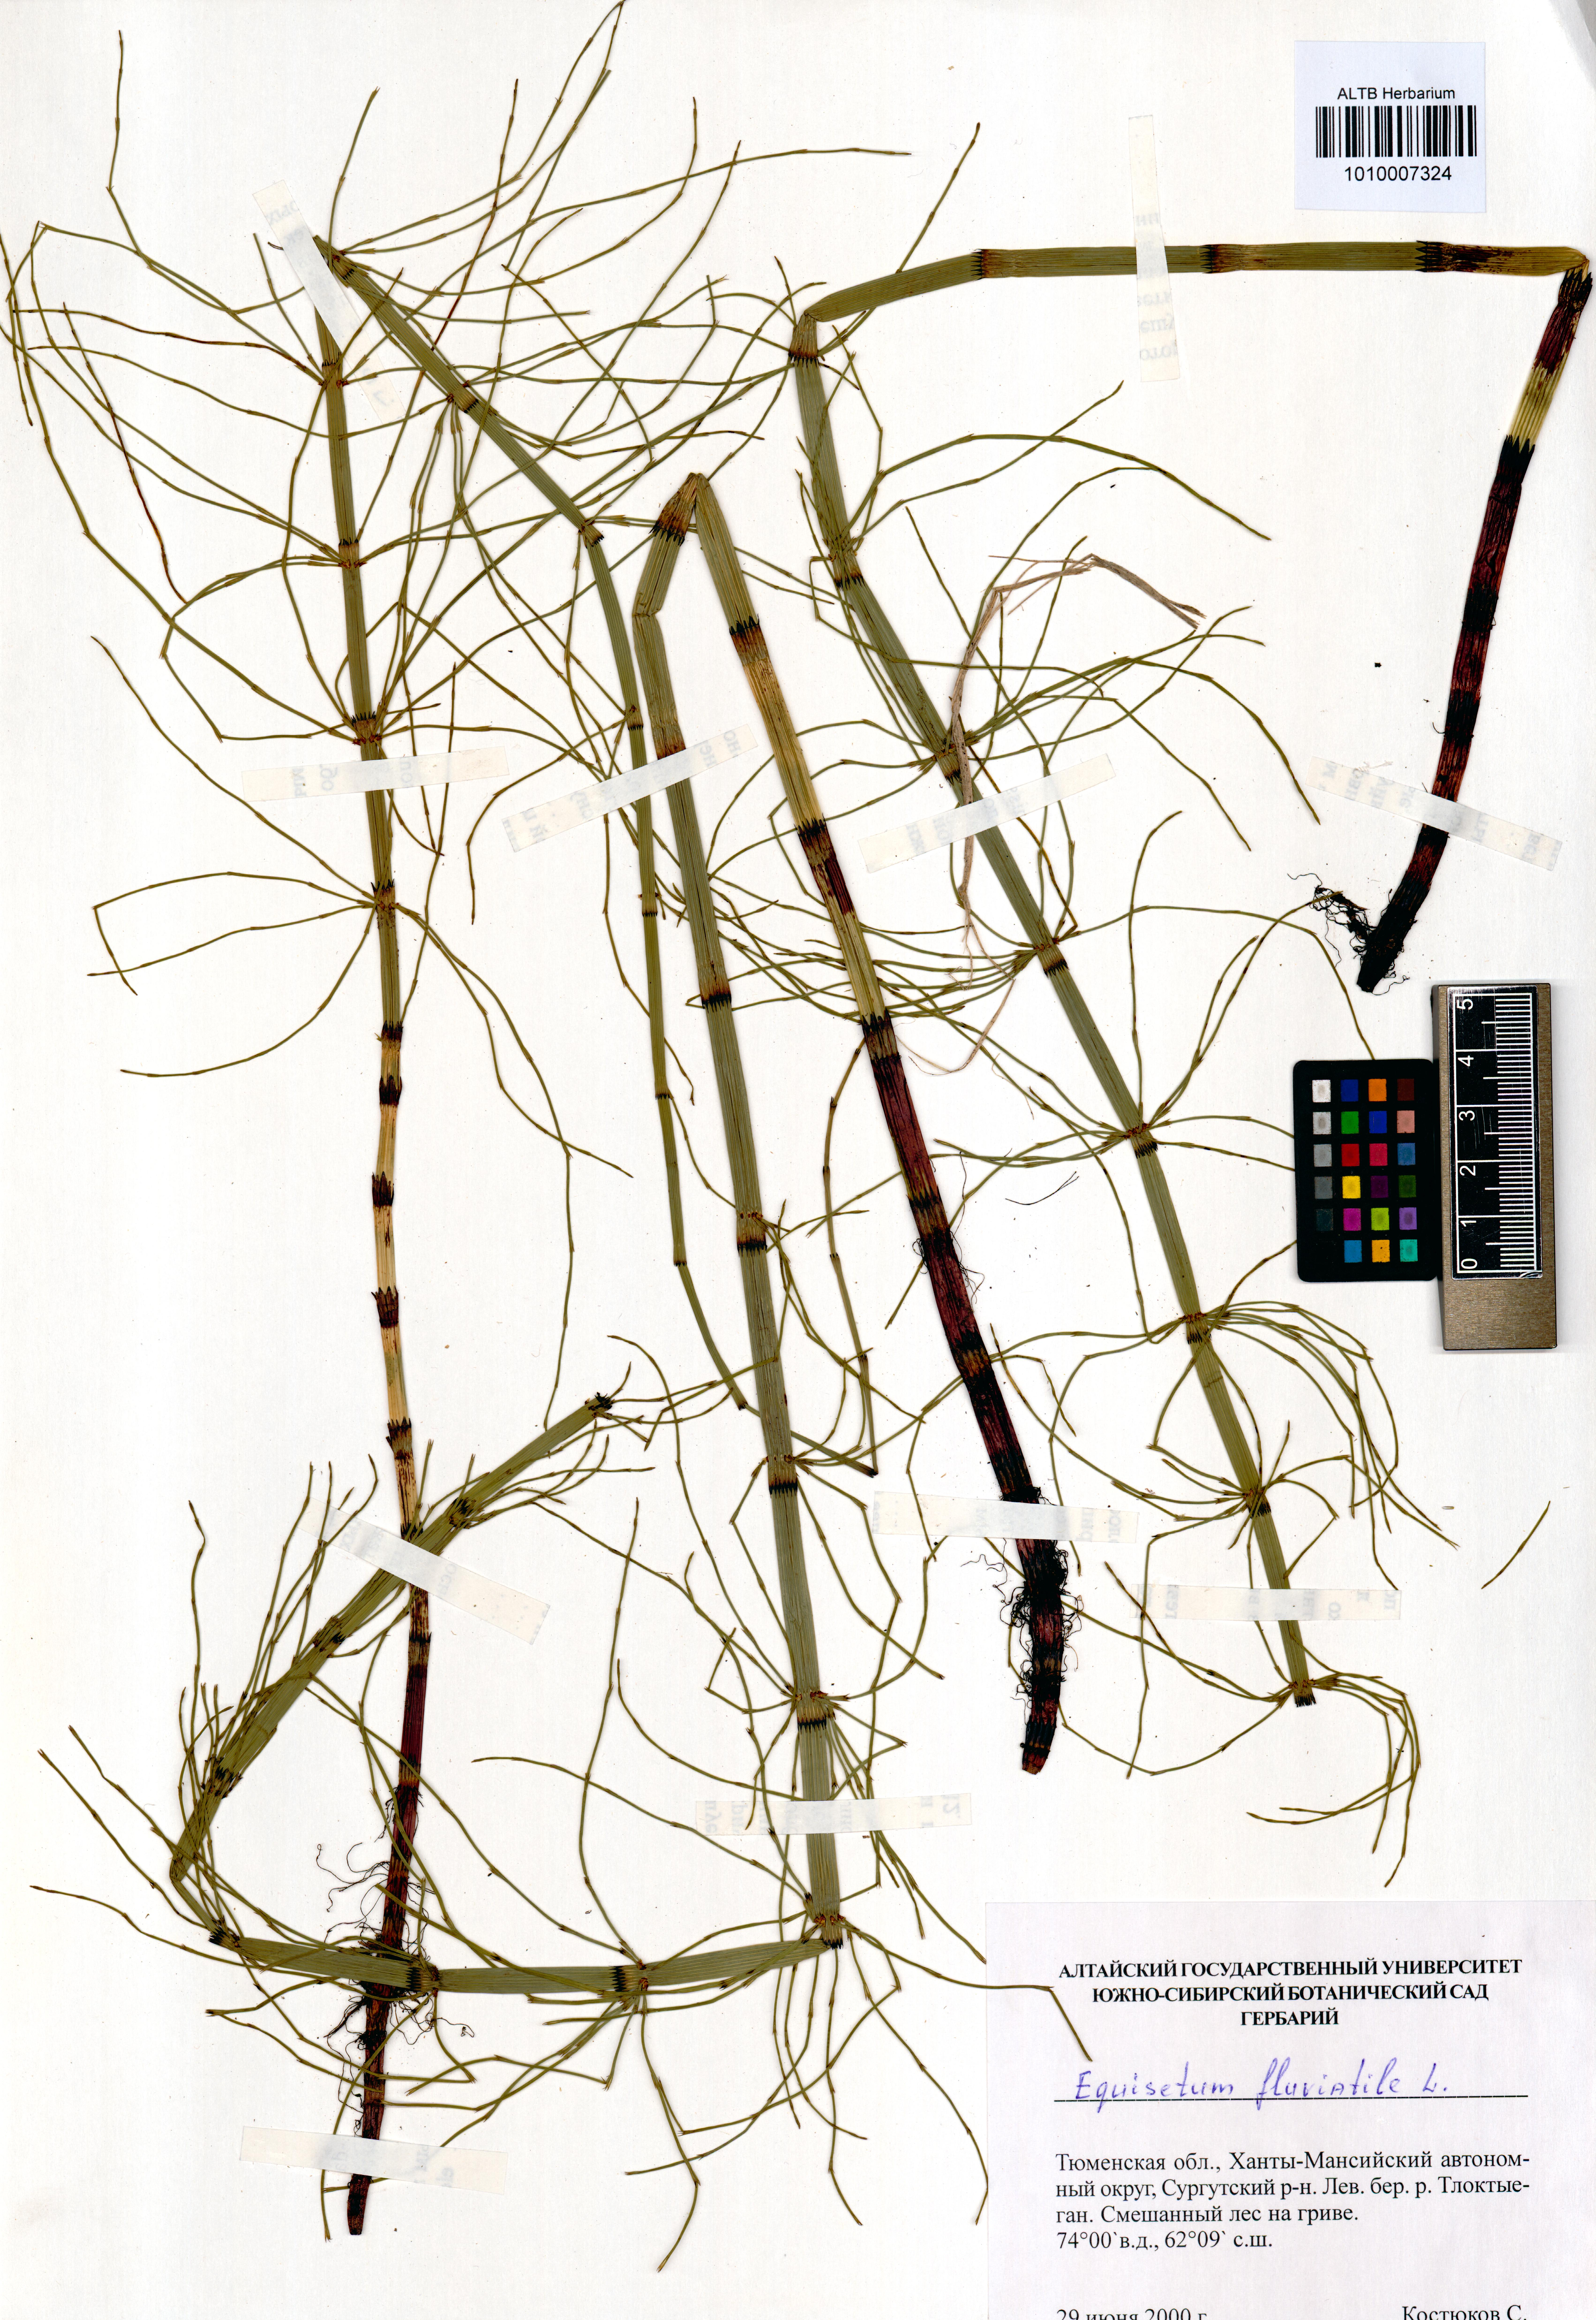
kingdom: Plantae
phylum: Tracheophyta
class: Polypodiopsida
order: Equisetales
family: Equisetaceae
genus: Equisetum
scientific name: Equisetum fluviatile
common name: Water horsetail
